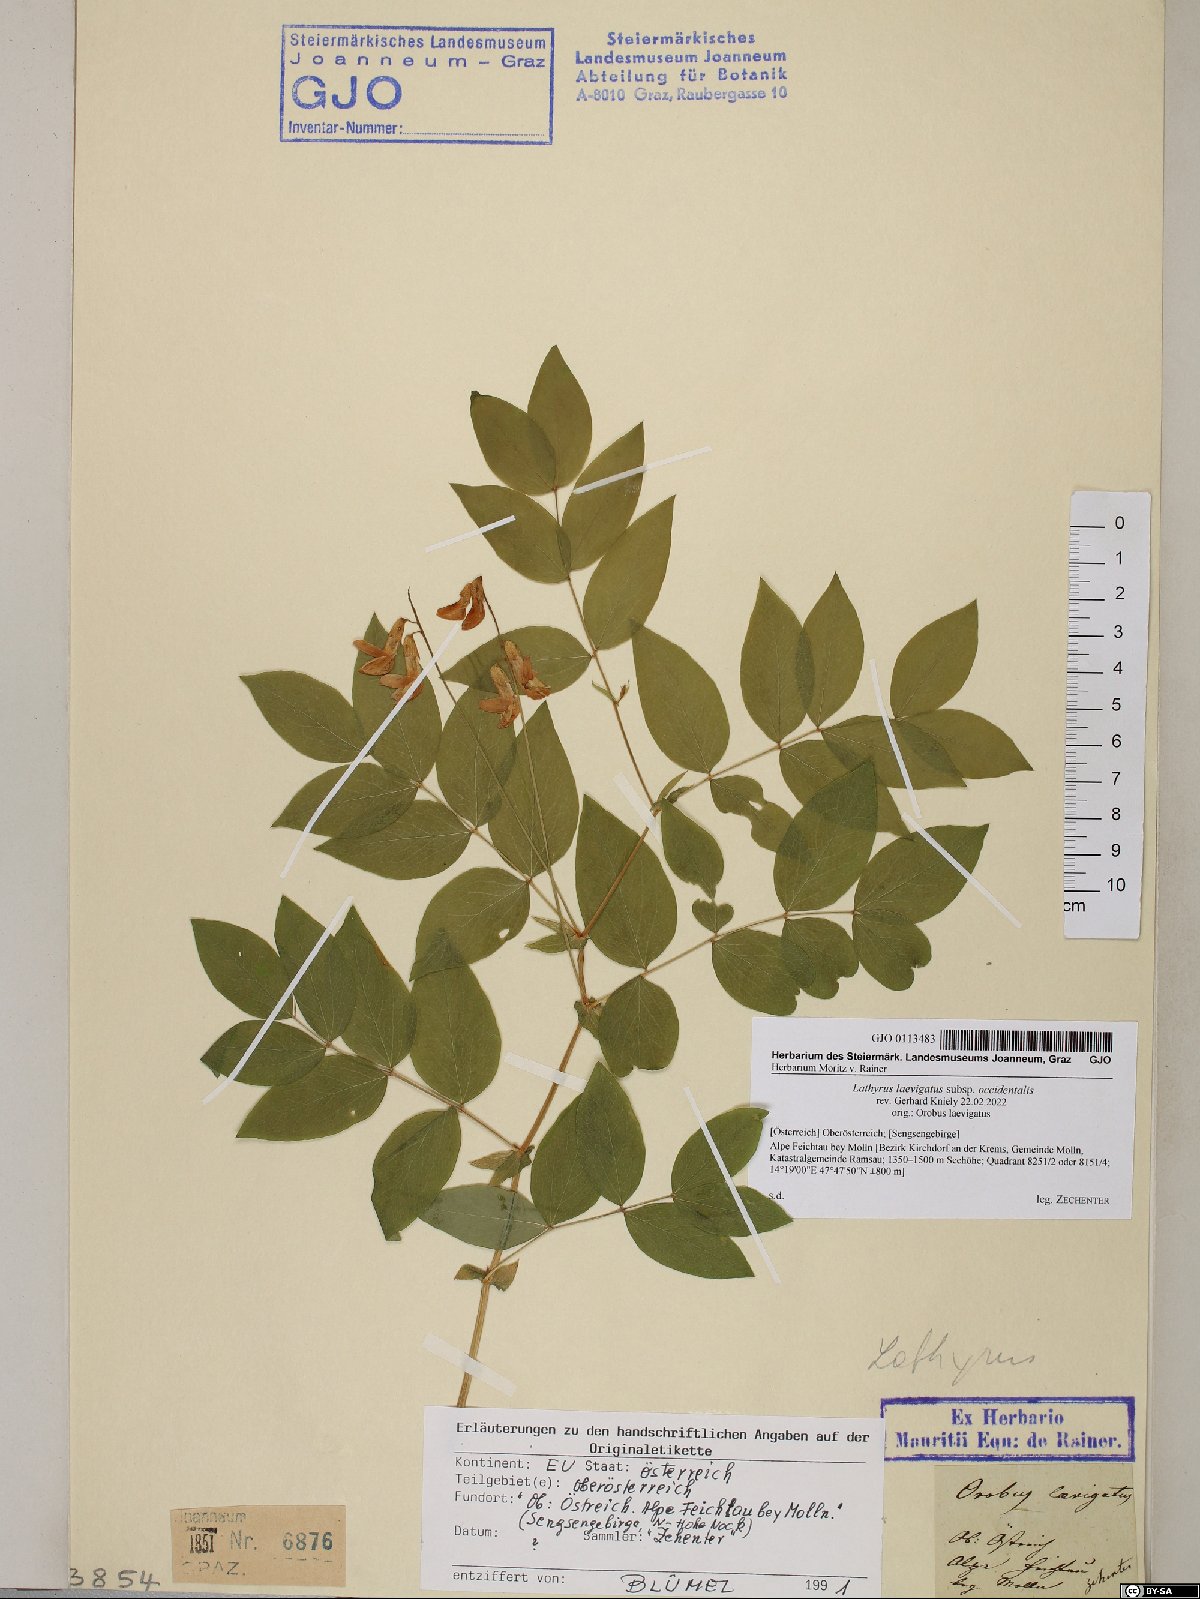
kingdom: Plantae
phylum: Tracheophyta
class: Magnoliopsida
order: Fabales
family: Fabaceae
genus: Lathyrus
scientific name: Lathyrus laevigatus
